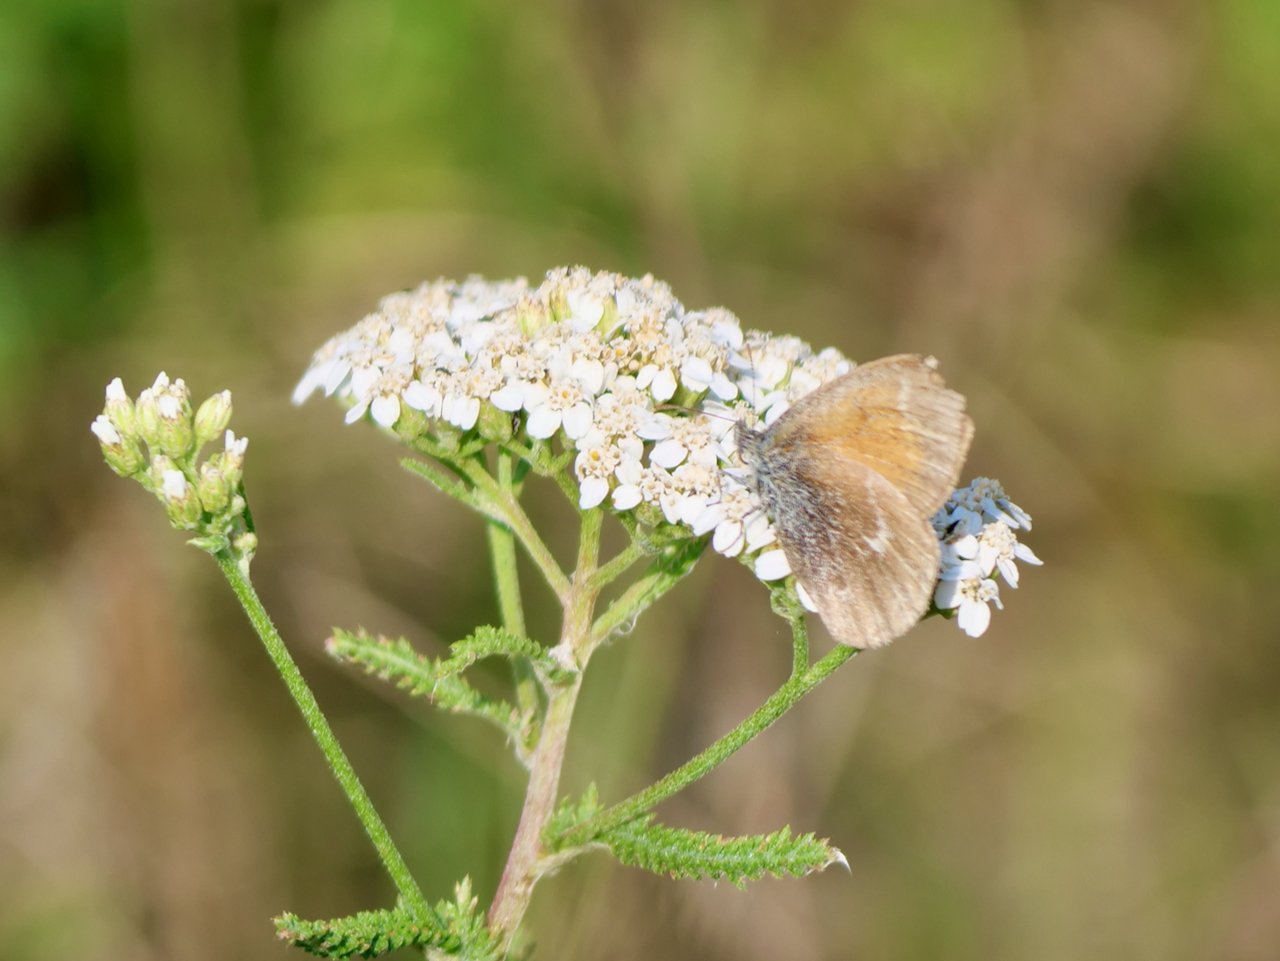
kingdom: Animalia
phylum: Arthropoda
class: Insecta
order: Lepidoptera
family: Nymphalidae
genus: Coenonympha
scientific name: Coenonympha tullia
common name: Large Heath
